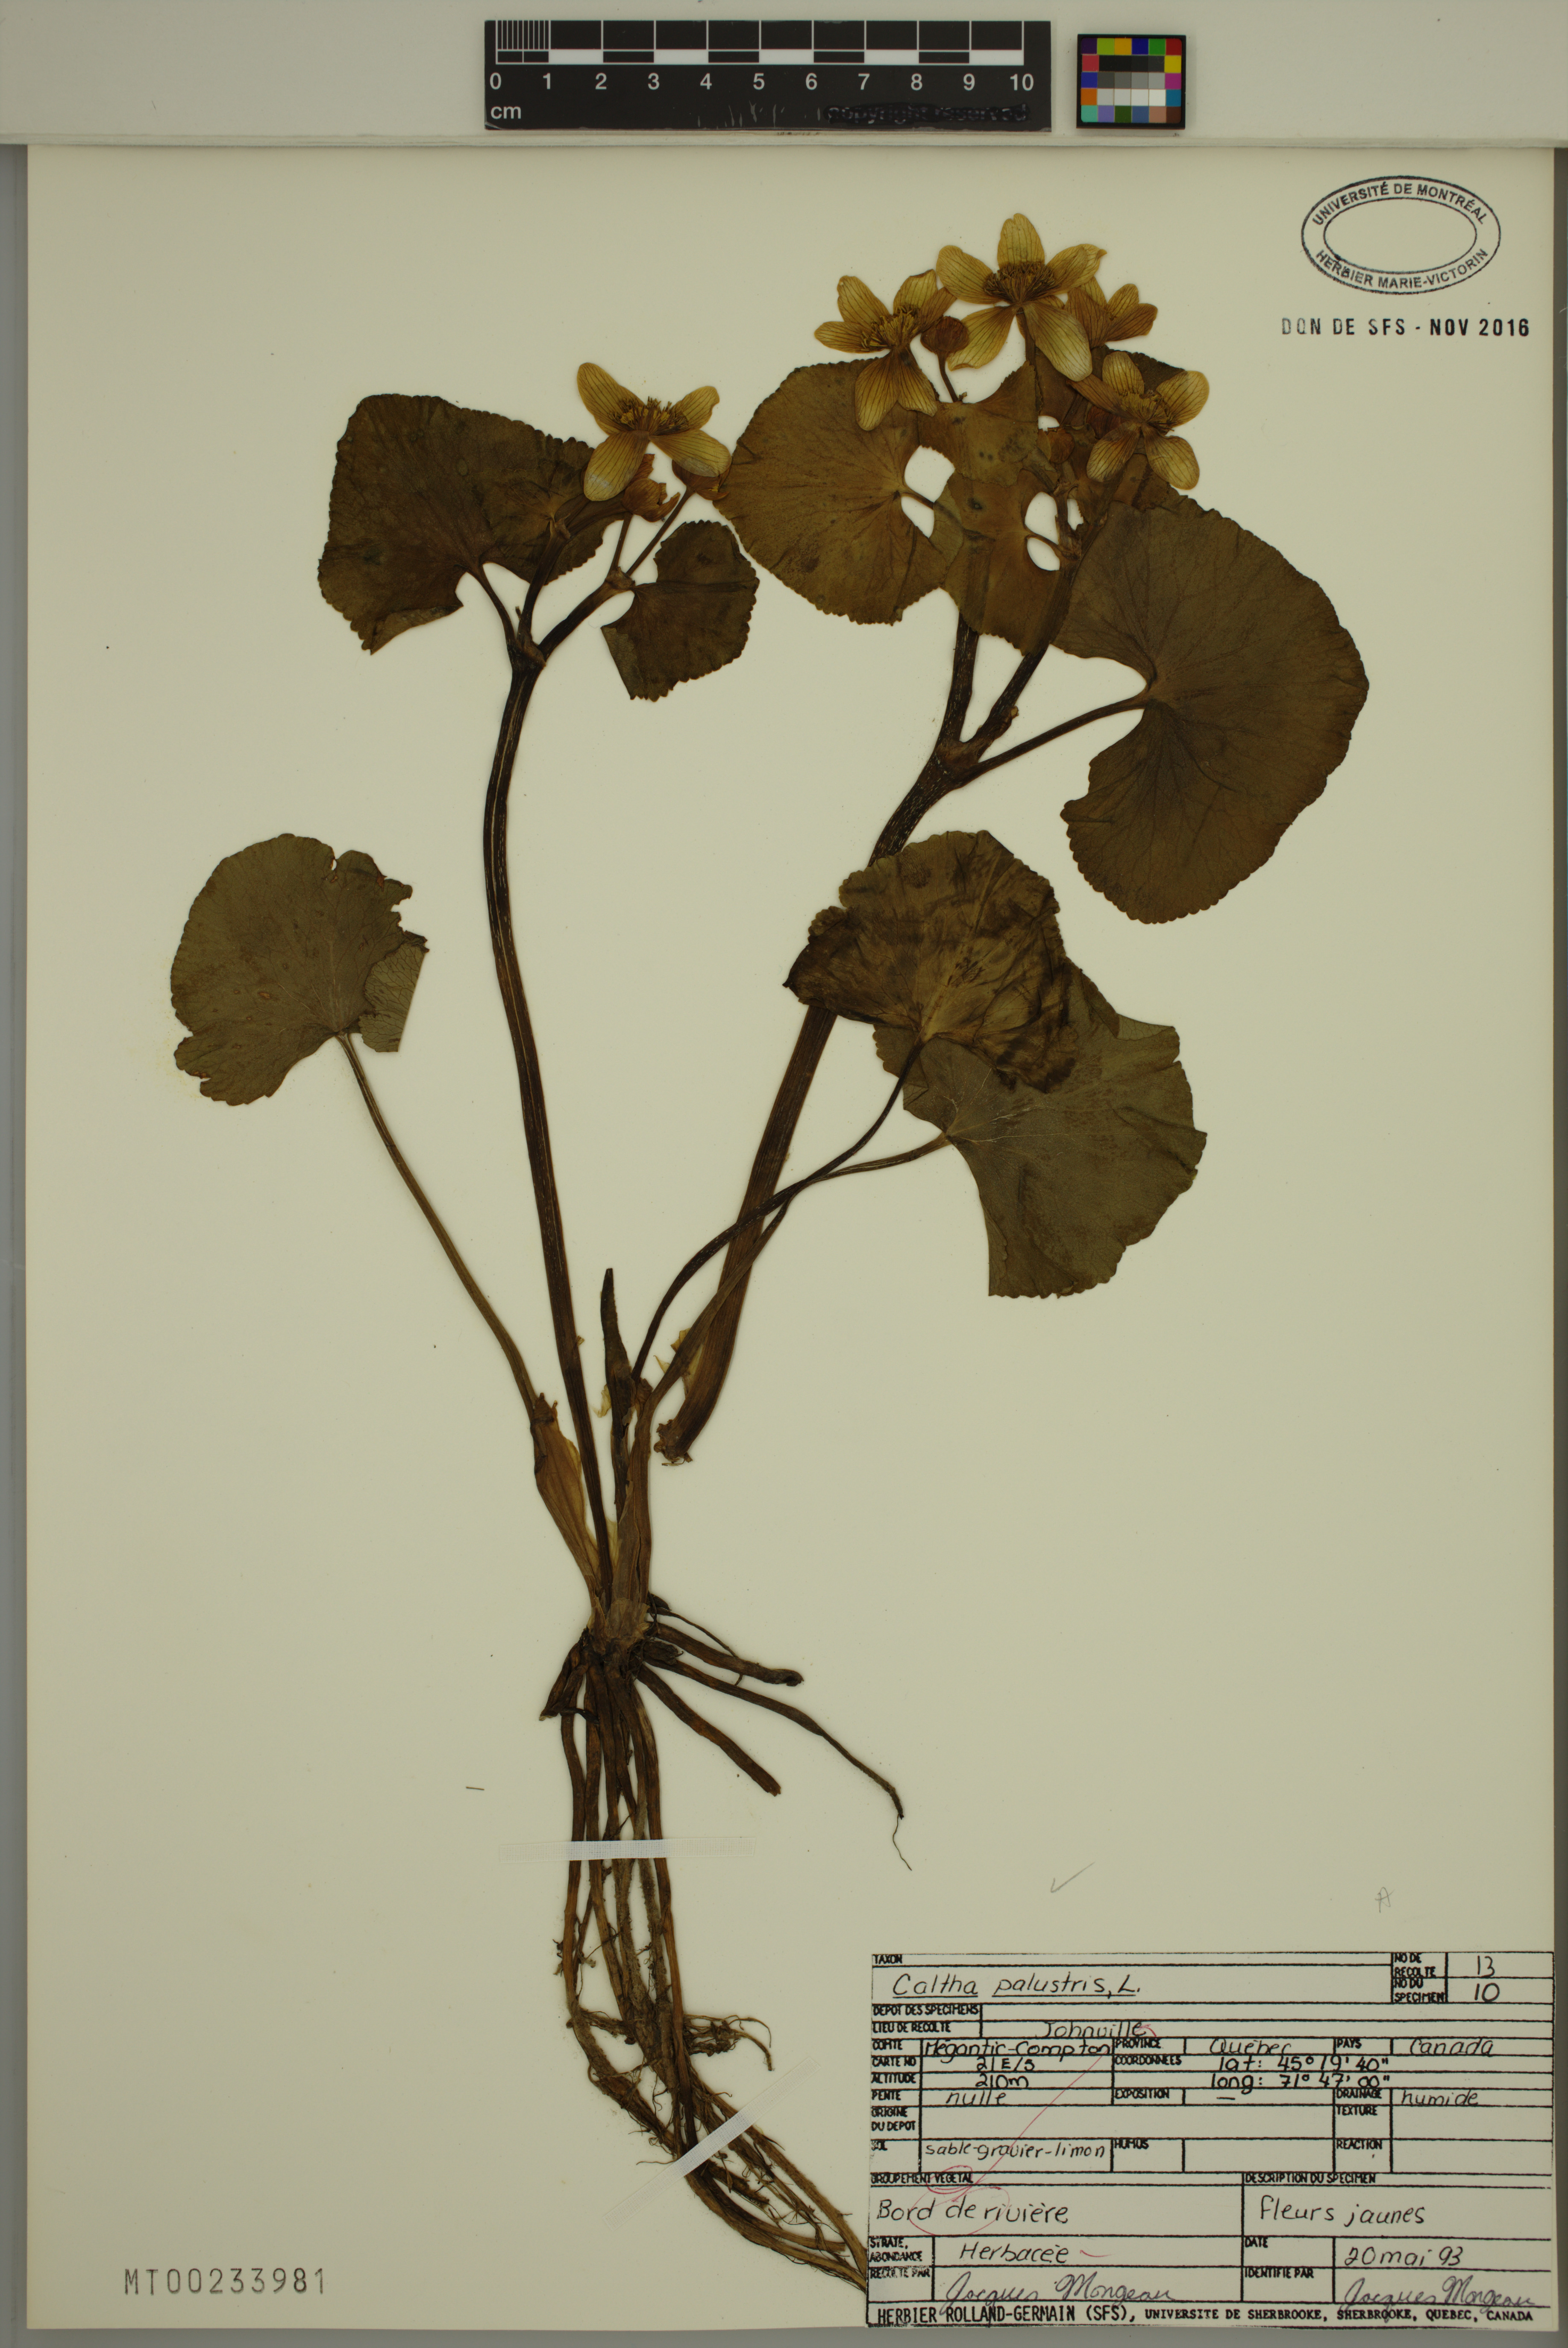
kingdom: Plantae
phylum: Tracheophyta
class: Magnoliopsida
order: Ranunculales
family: Ranunculaceae
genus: Caltha
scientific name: Caltha palustris
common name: Marsh marigold
